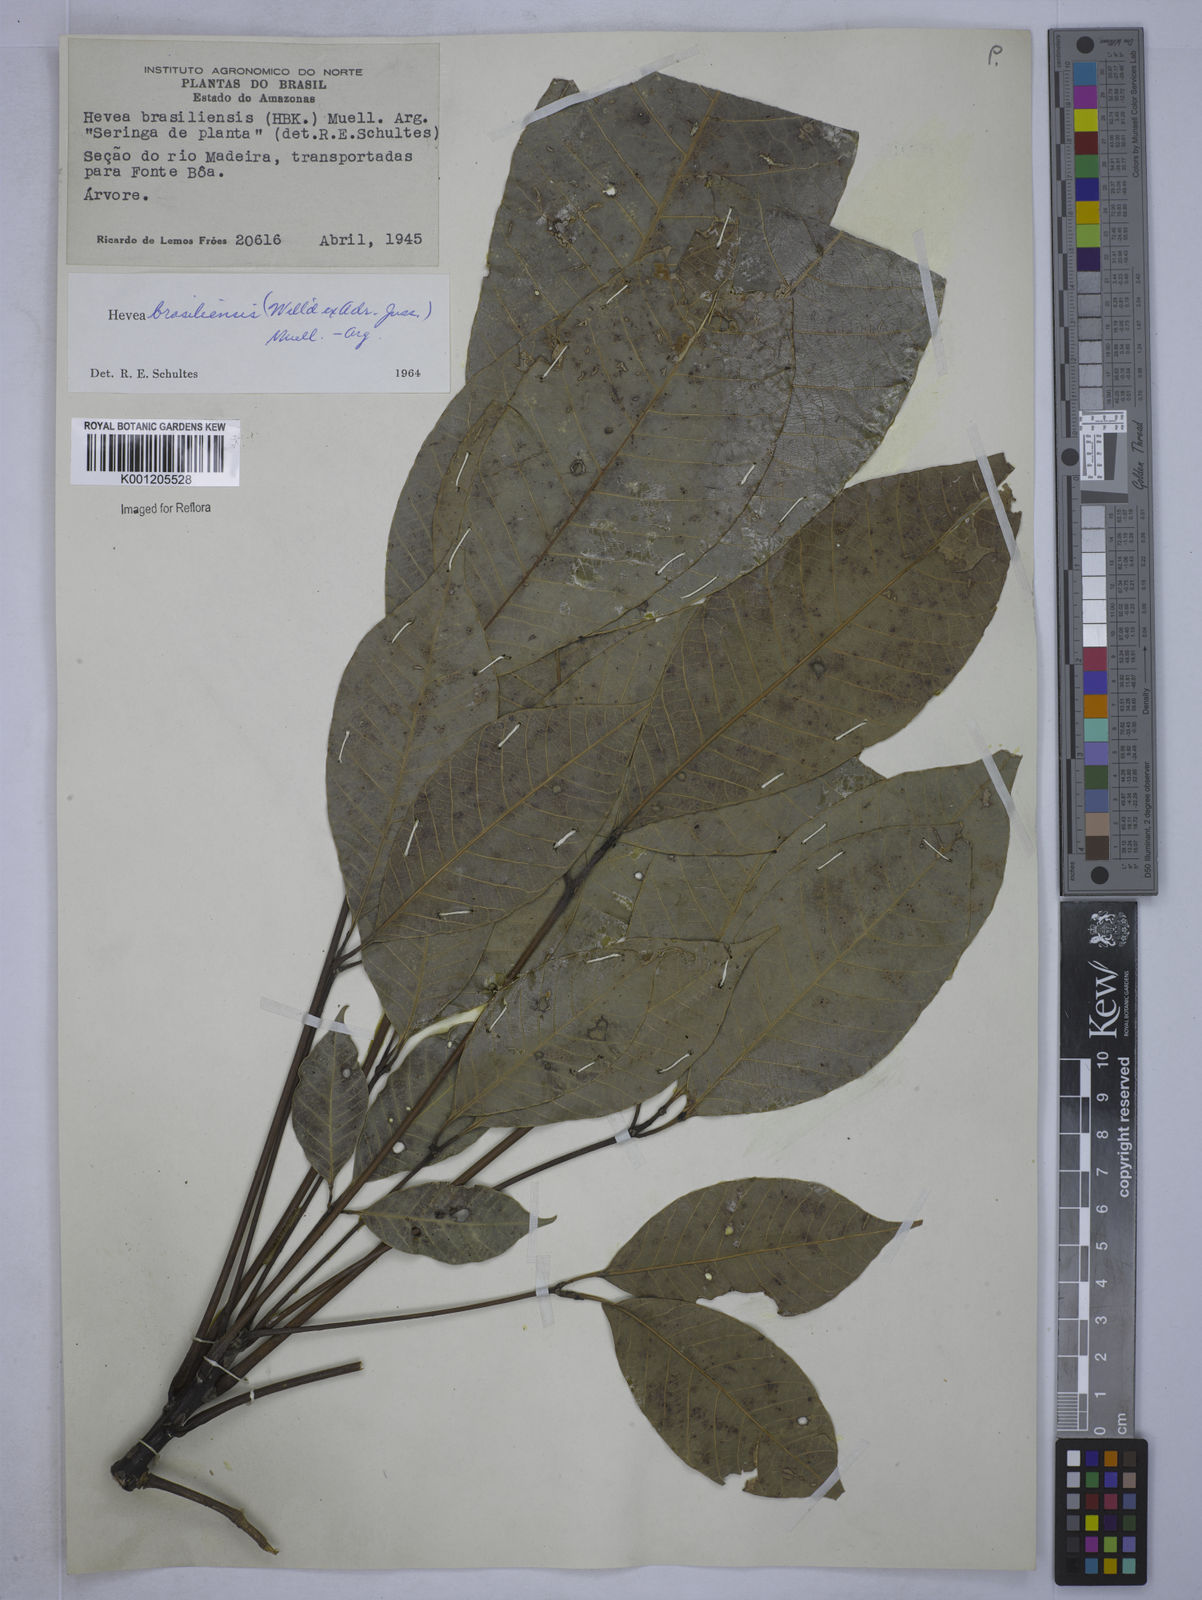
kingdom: Plantae
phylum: Tracheophyta
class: Magnoliopsida
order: Malpighiales
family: Euphorbiaceae
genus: Hevea
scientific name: Hevea
